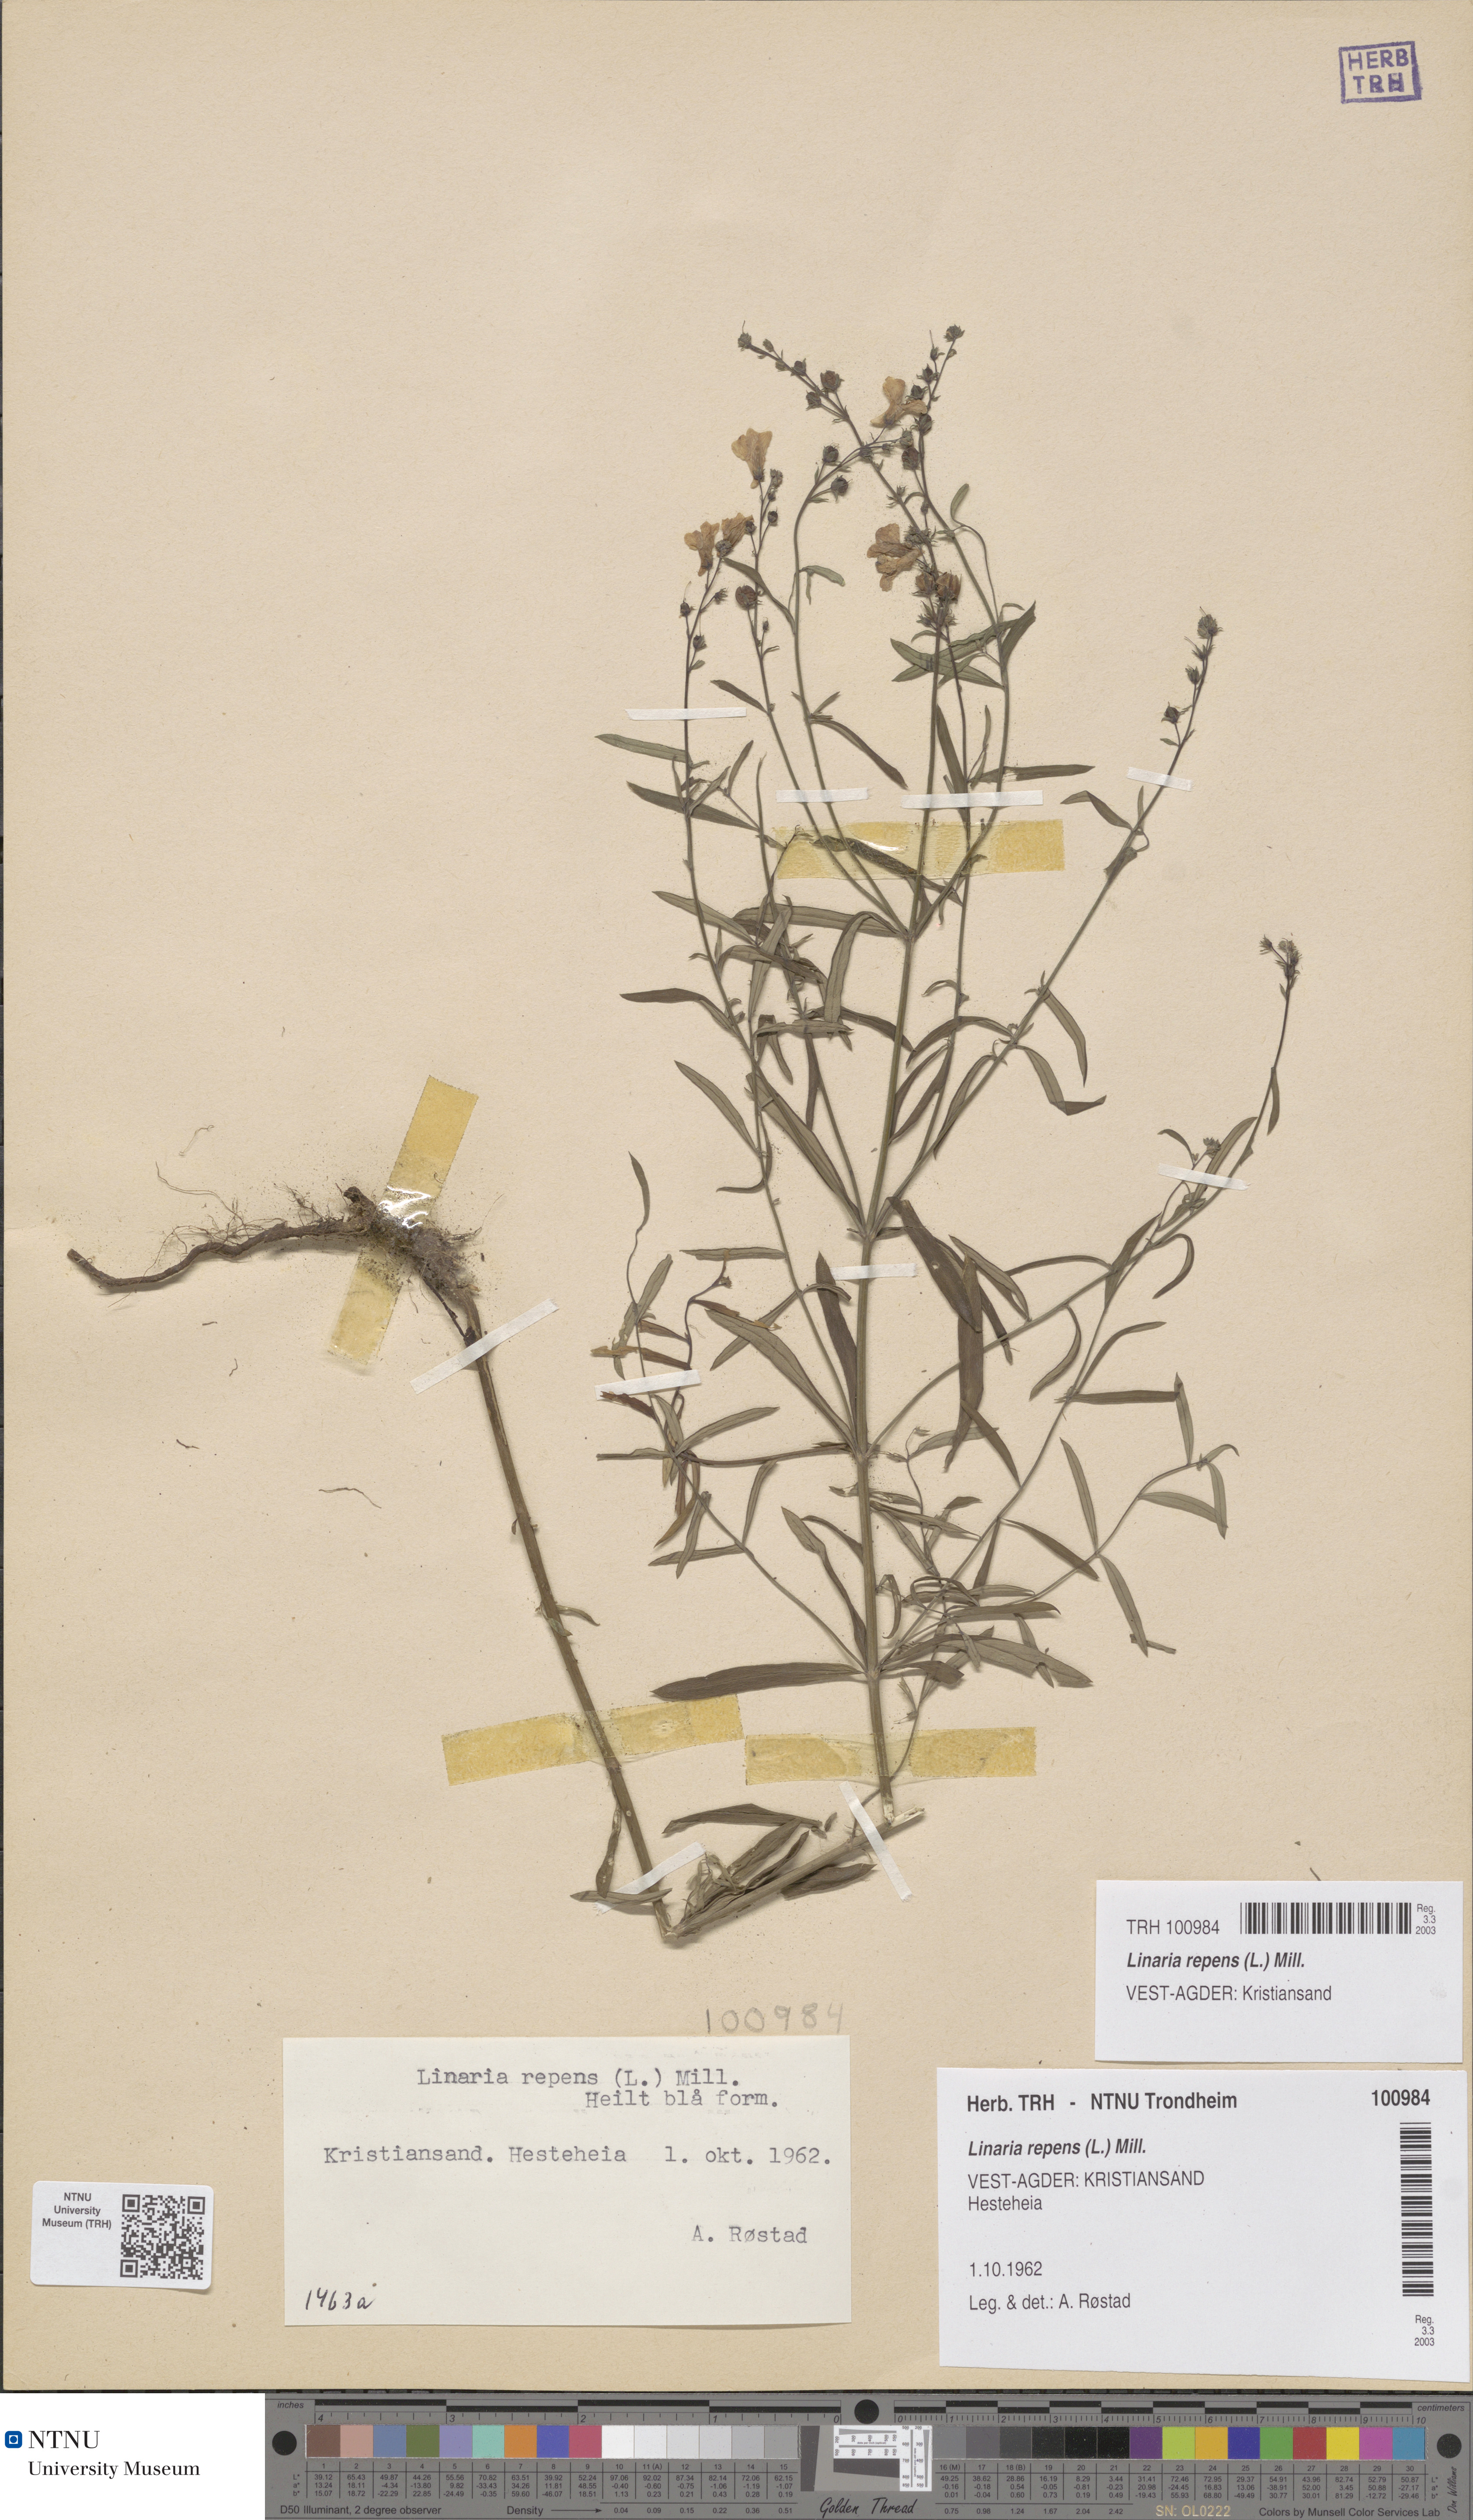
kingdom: Plantae
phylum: Tracheophyta
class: Magnoliopsida
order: Lamiales
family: Plantaginaceae
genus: Linaria
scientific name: Linaria repens
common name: Pale toadflax
